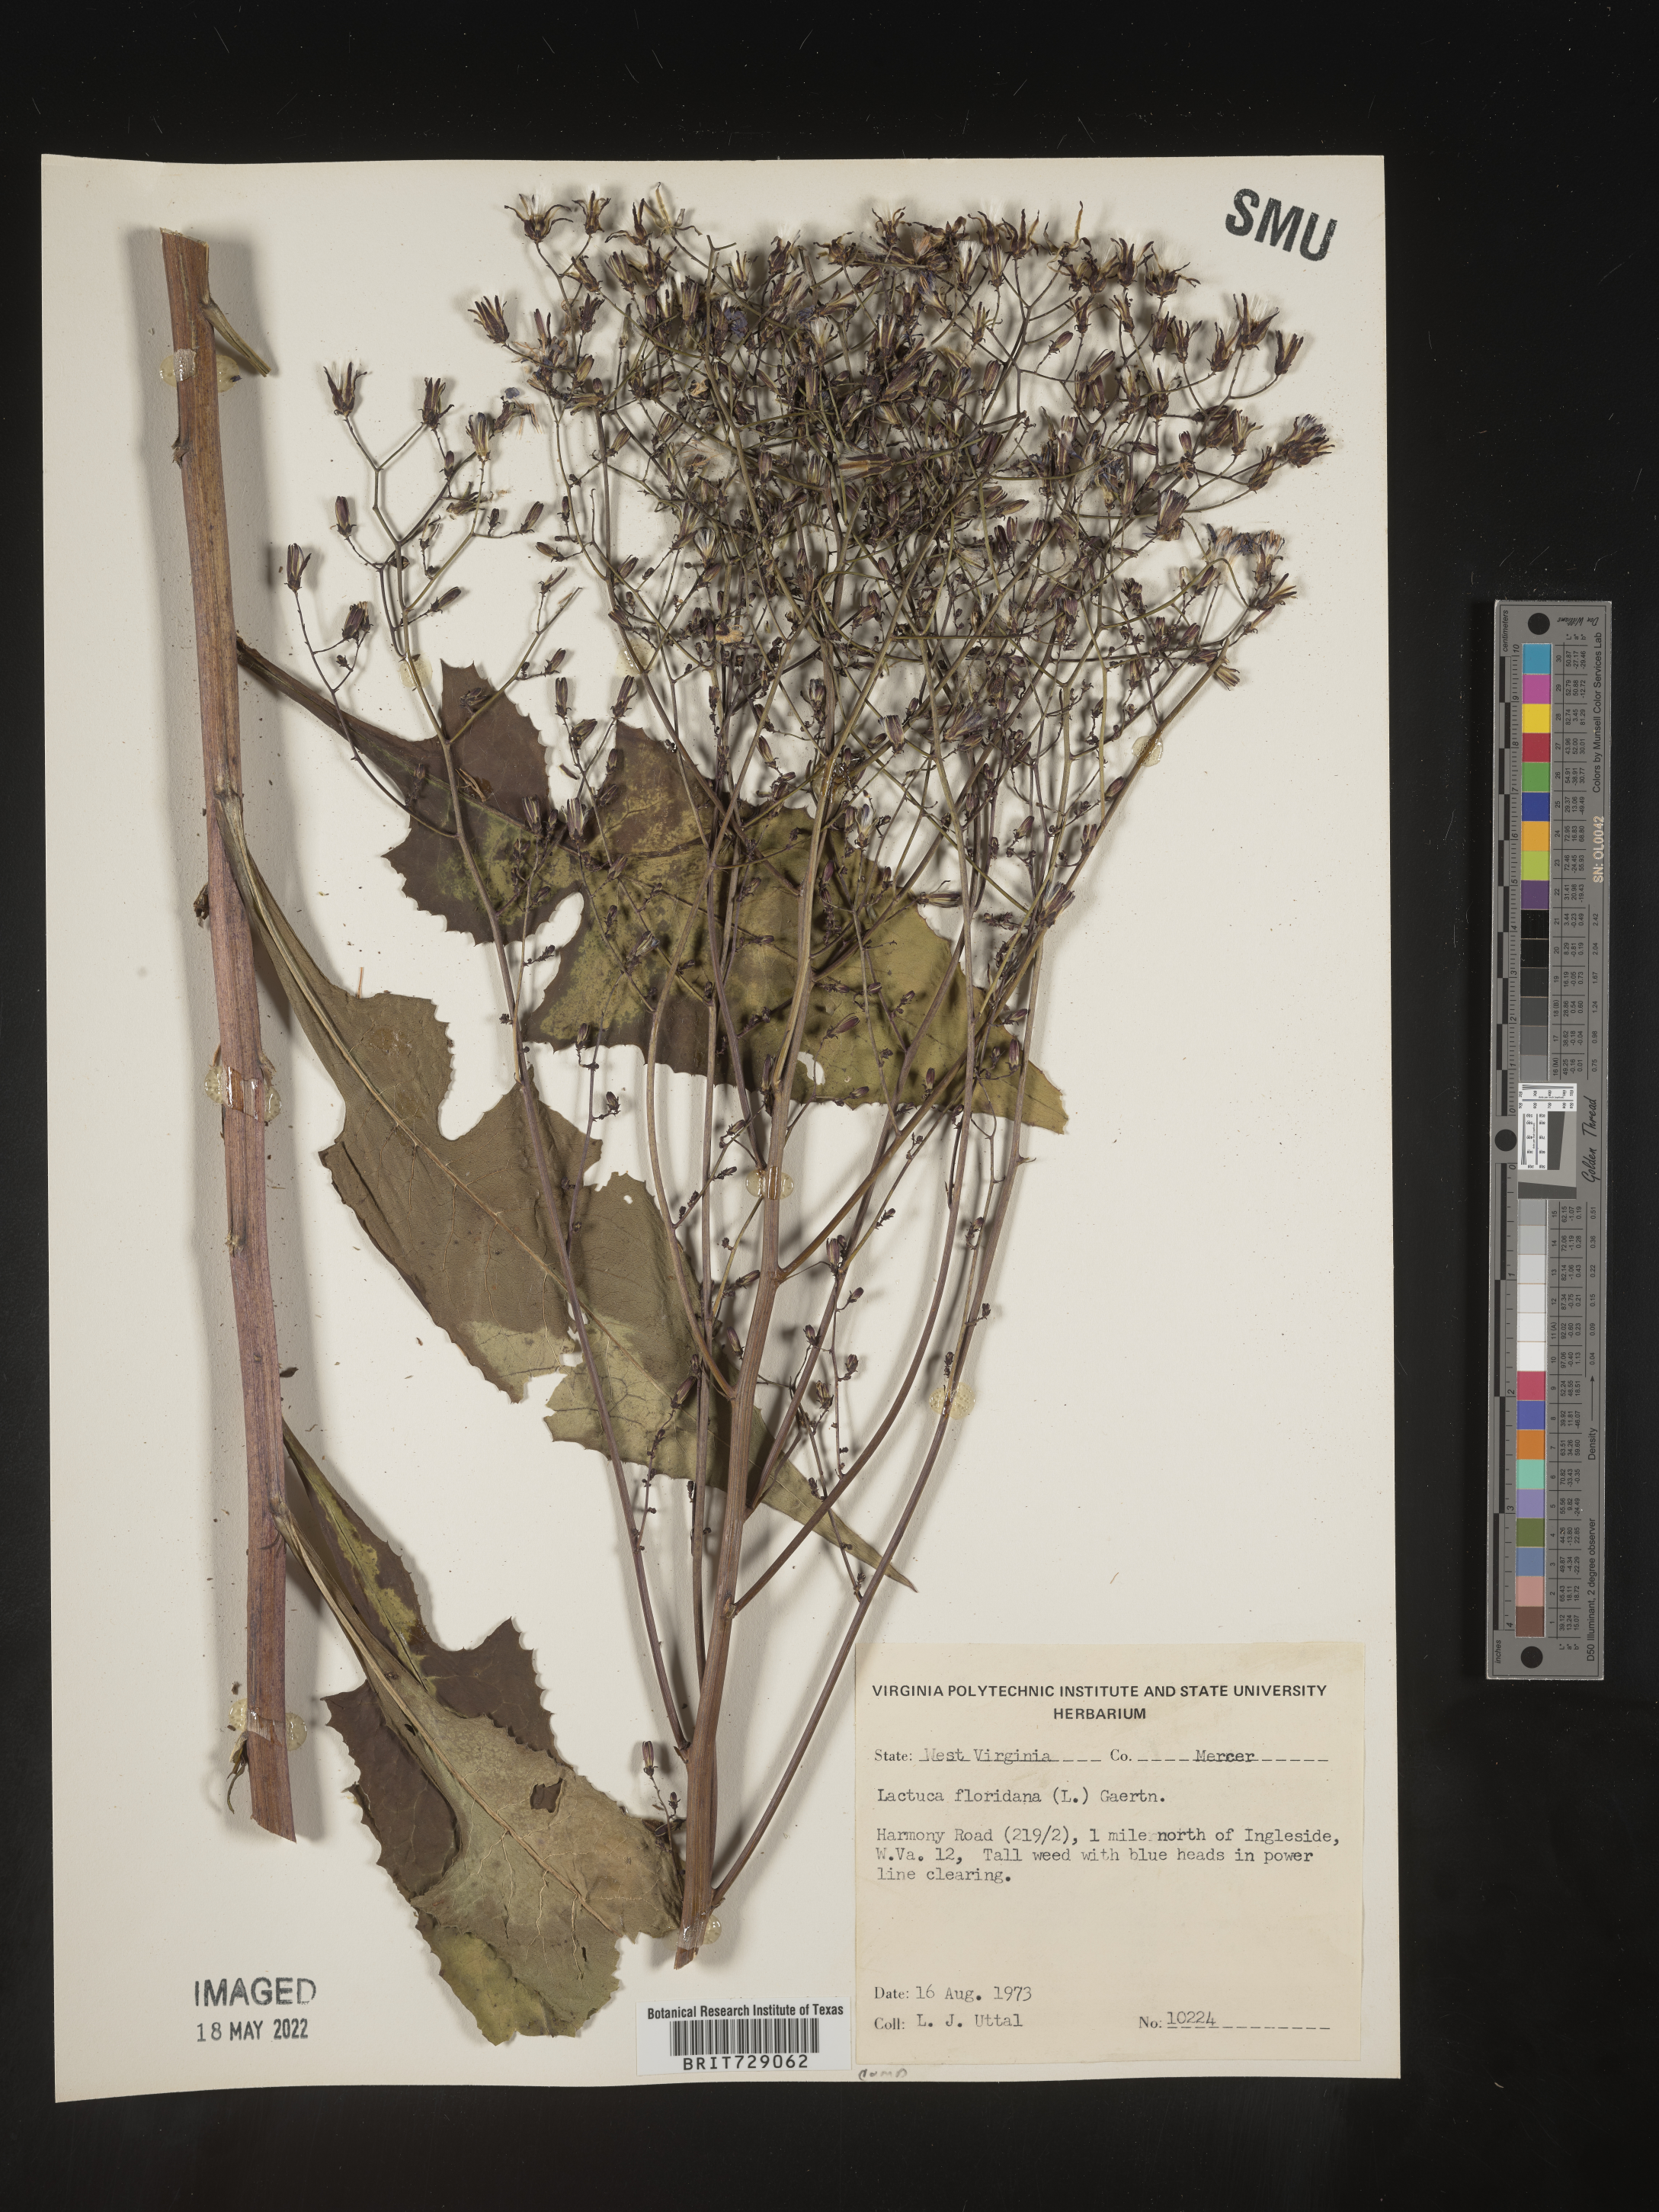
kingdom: Plantae
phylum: Tracheophyta
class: Magnoliopsida
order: Asterales
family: Asteraceae
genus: Lactuca
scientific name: Lactuca floridana
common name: Woodland lettuce
